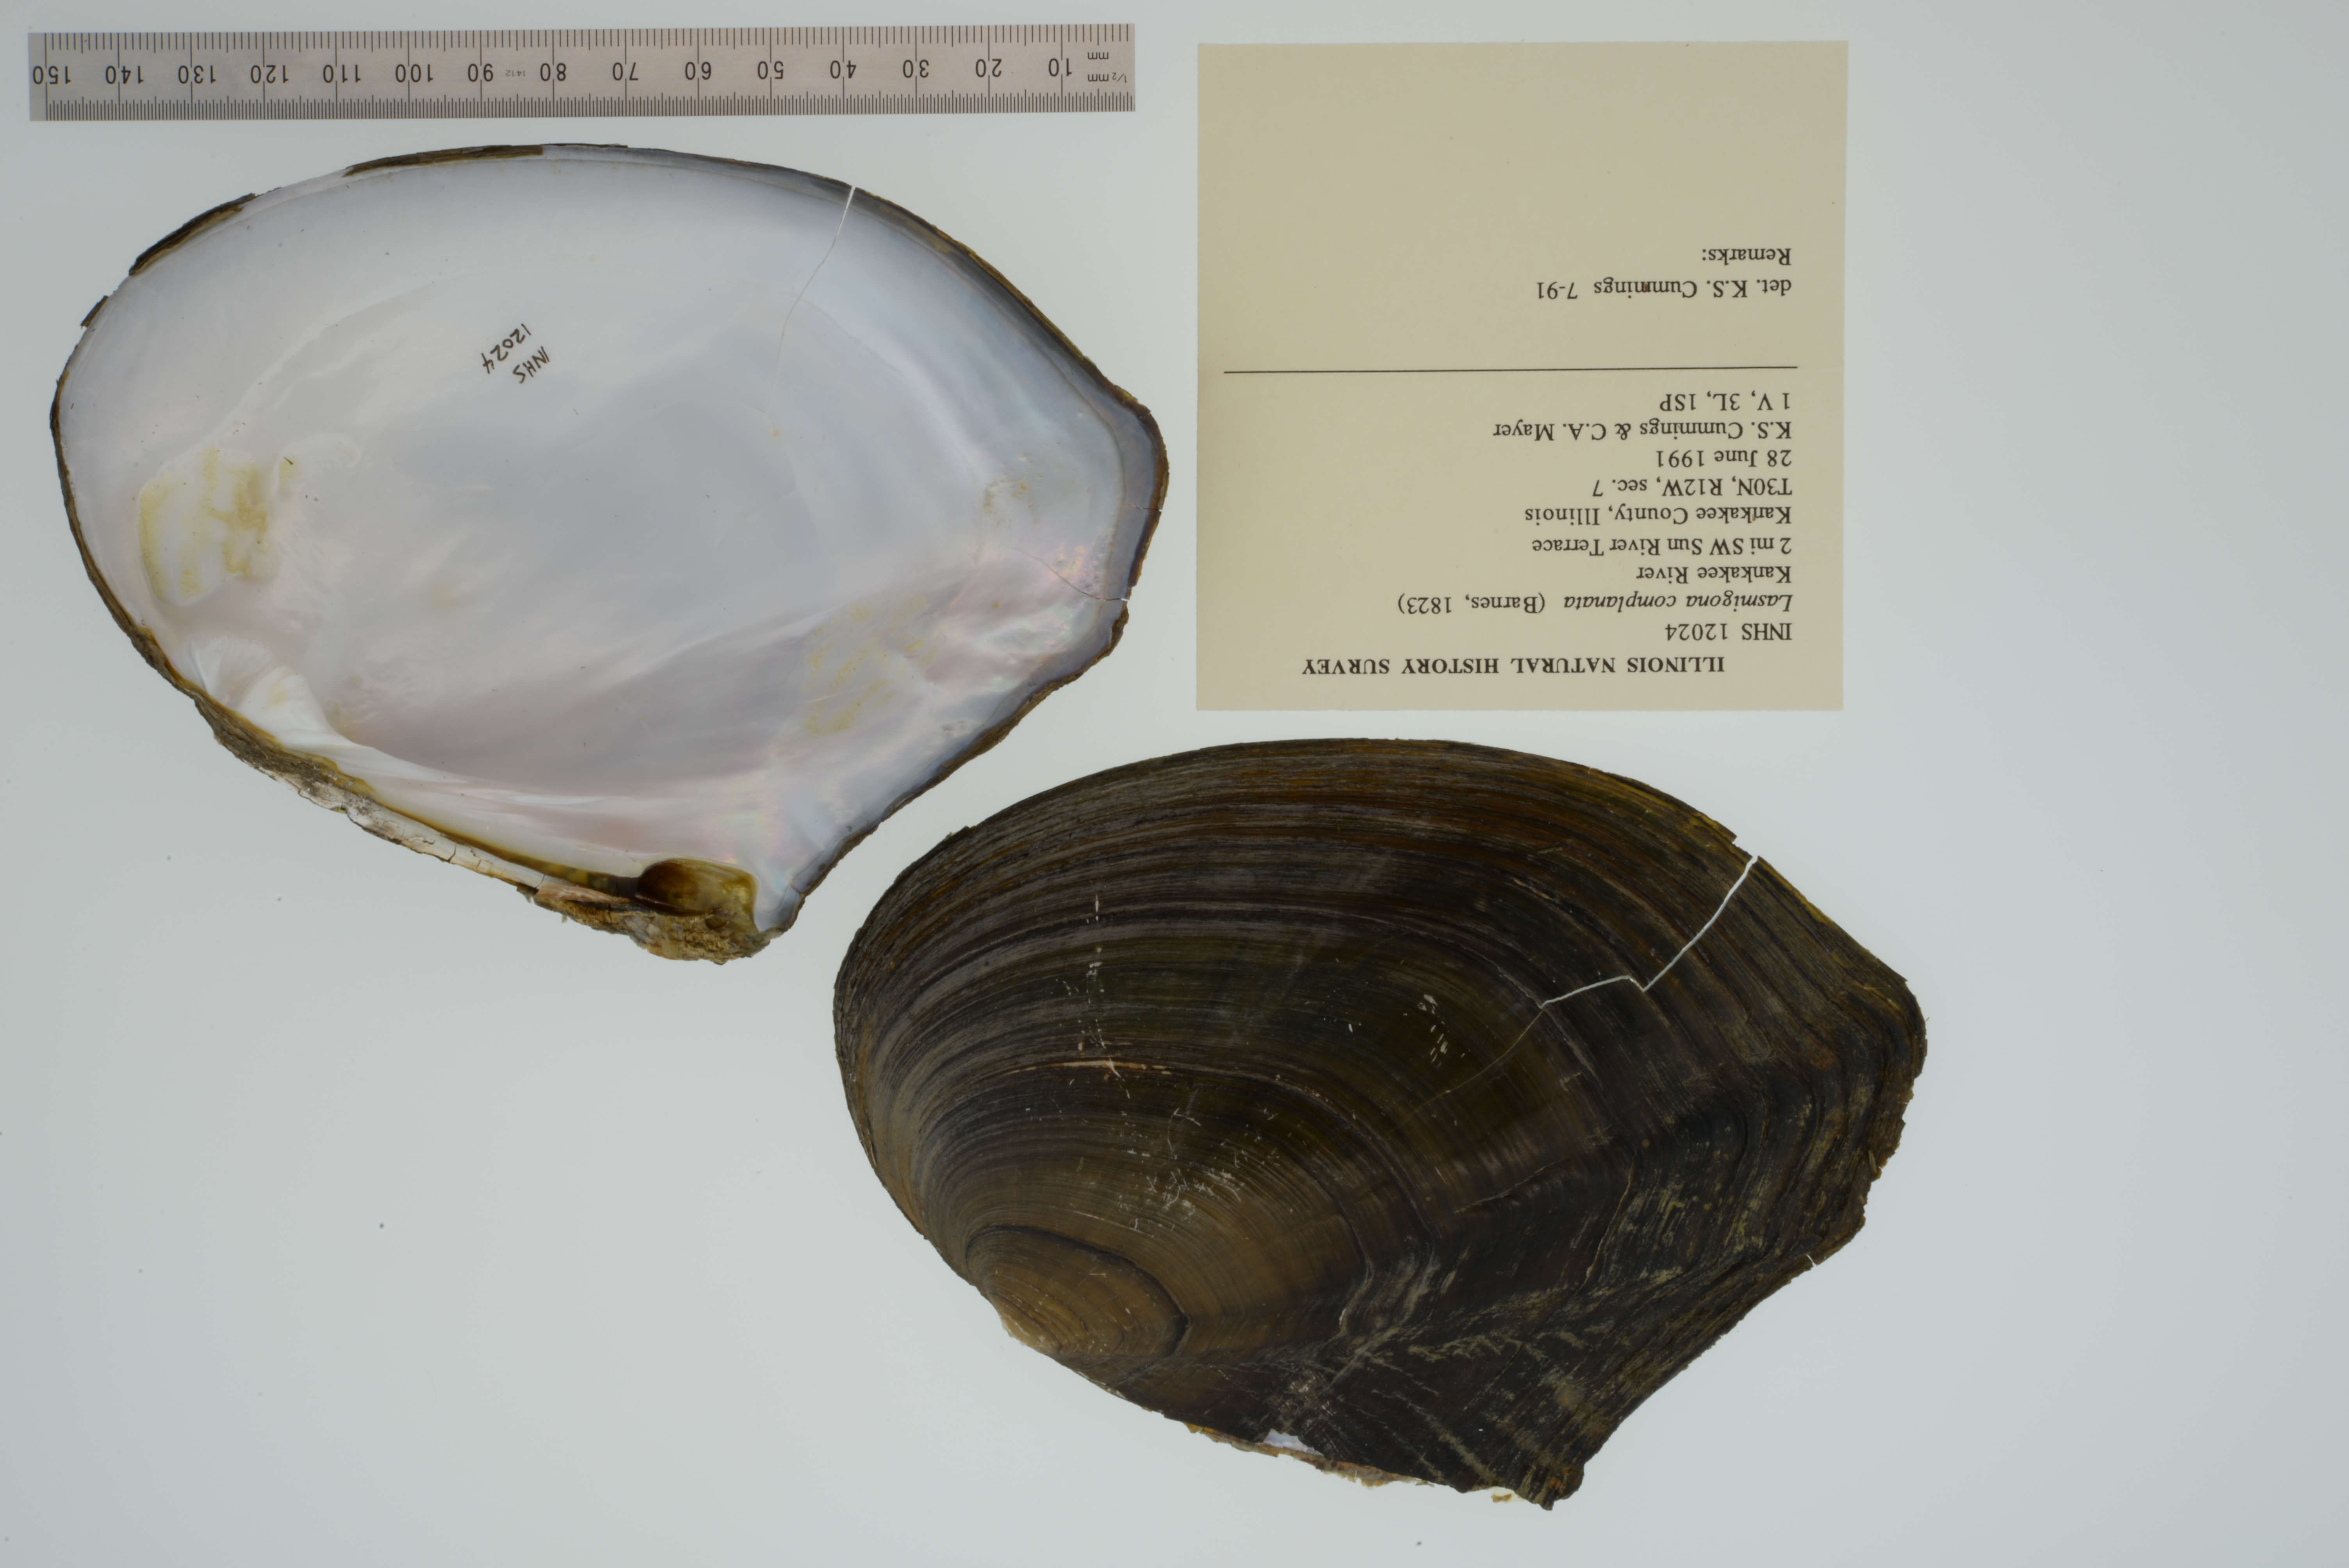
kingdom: Animalia
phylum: Mollusca
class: Bivalvia
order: Unionida
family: Unionidae
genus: Lasmigona
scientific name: Lasmigona complanata
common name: White heelsplitter
